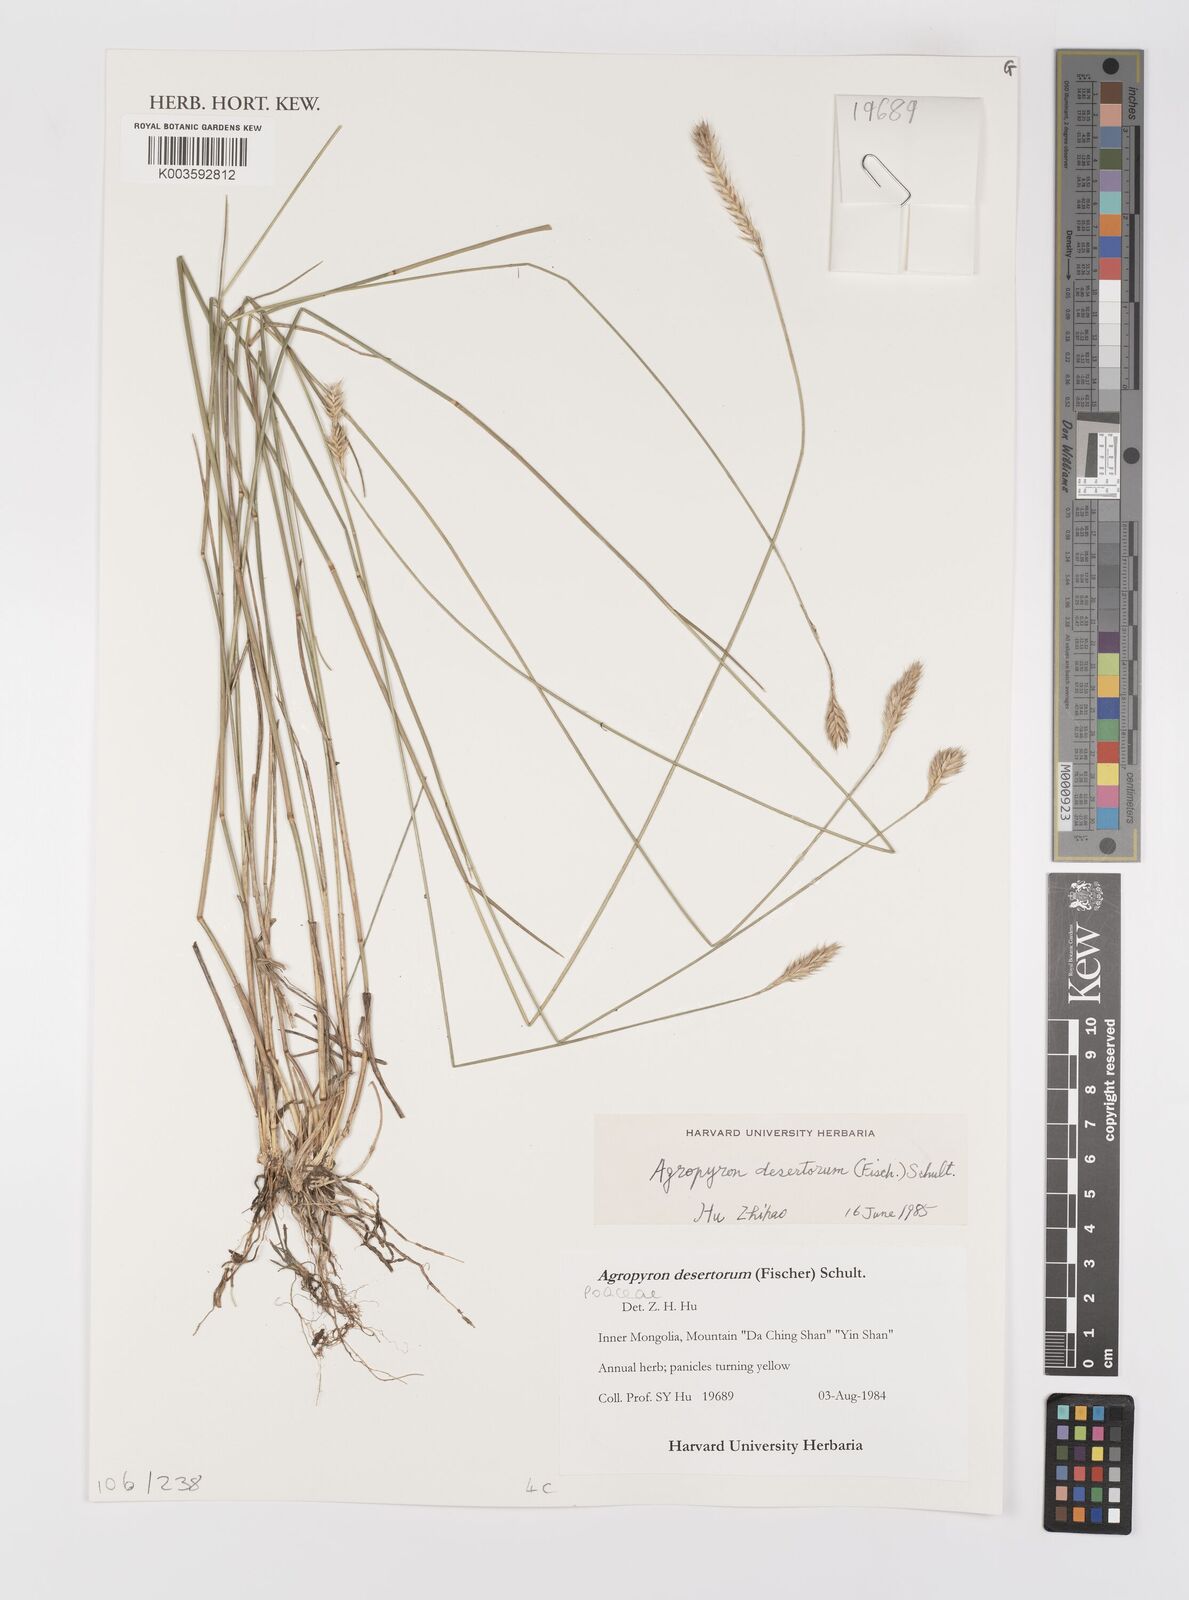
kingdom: Plantae
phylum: Tracheophyta
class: Liliopsida
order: Poales
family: Poaceae
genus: Agropyron
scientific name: Agropyron desertorum
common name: Desert wheatgrass
